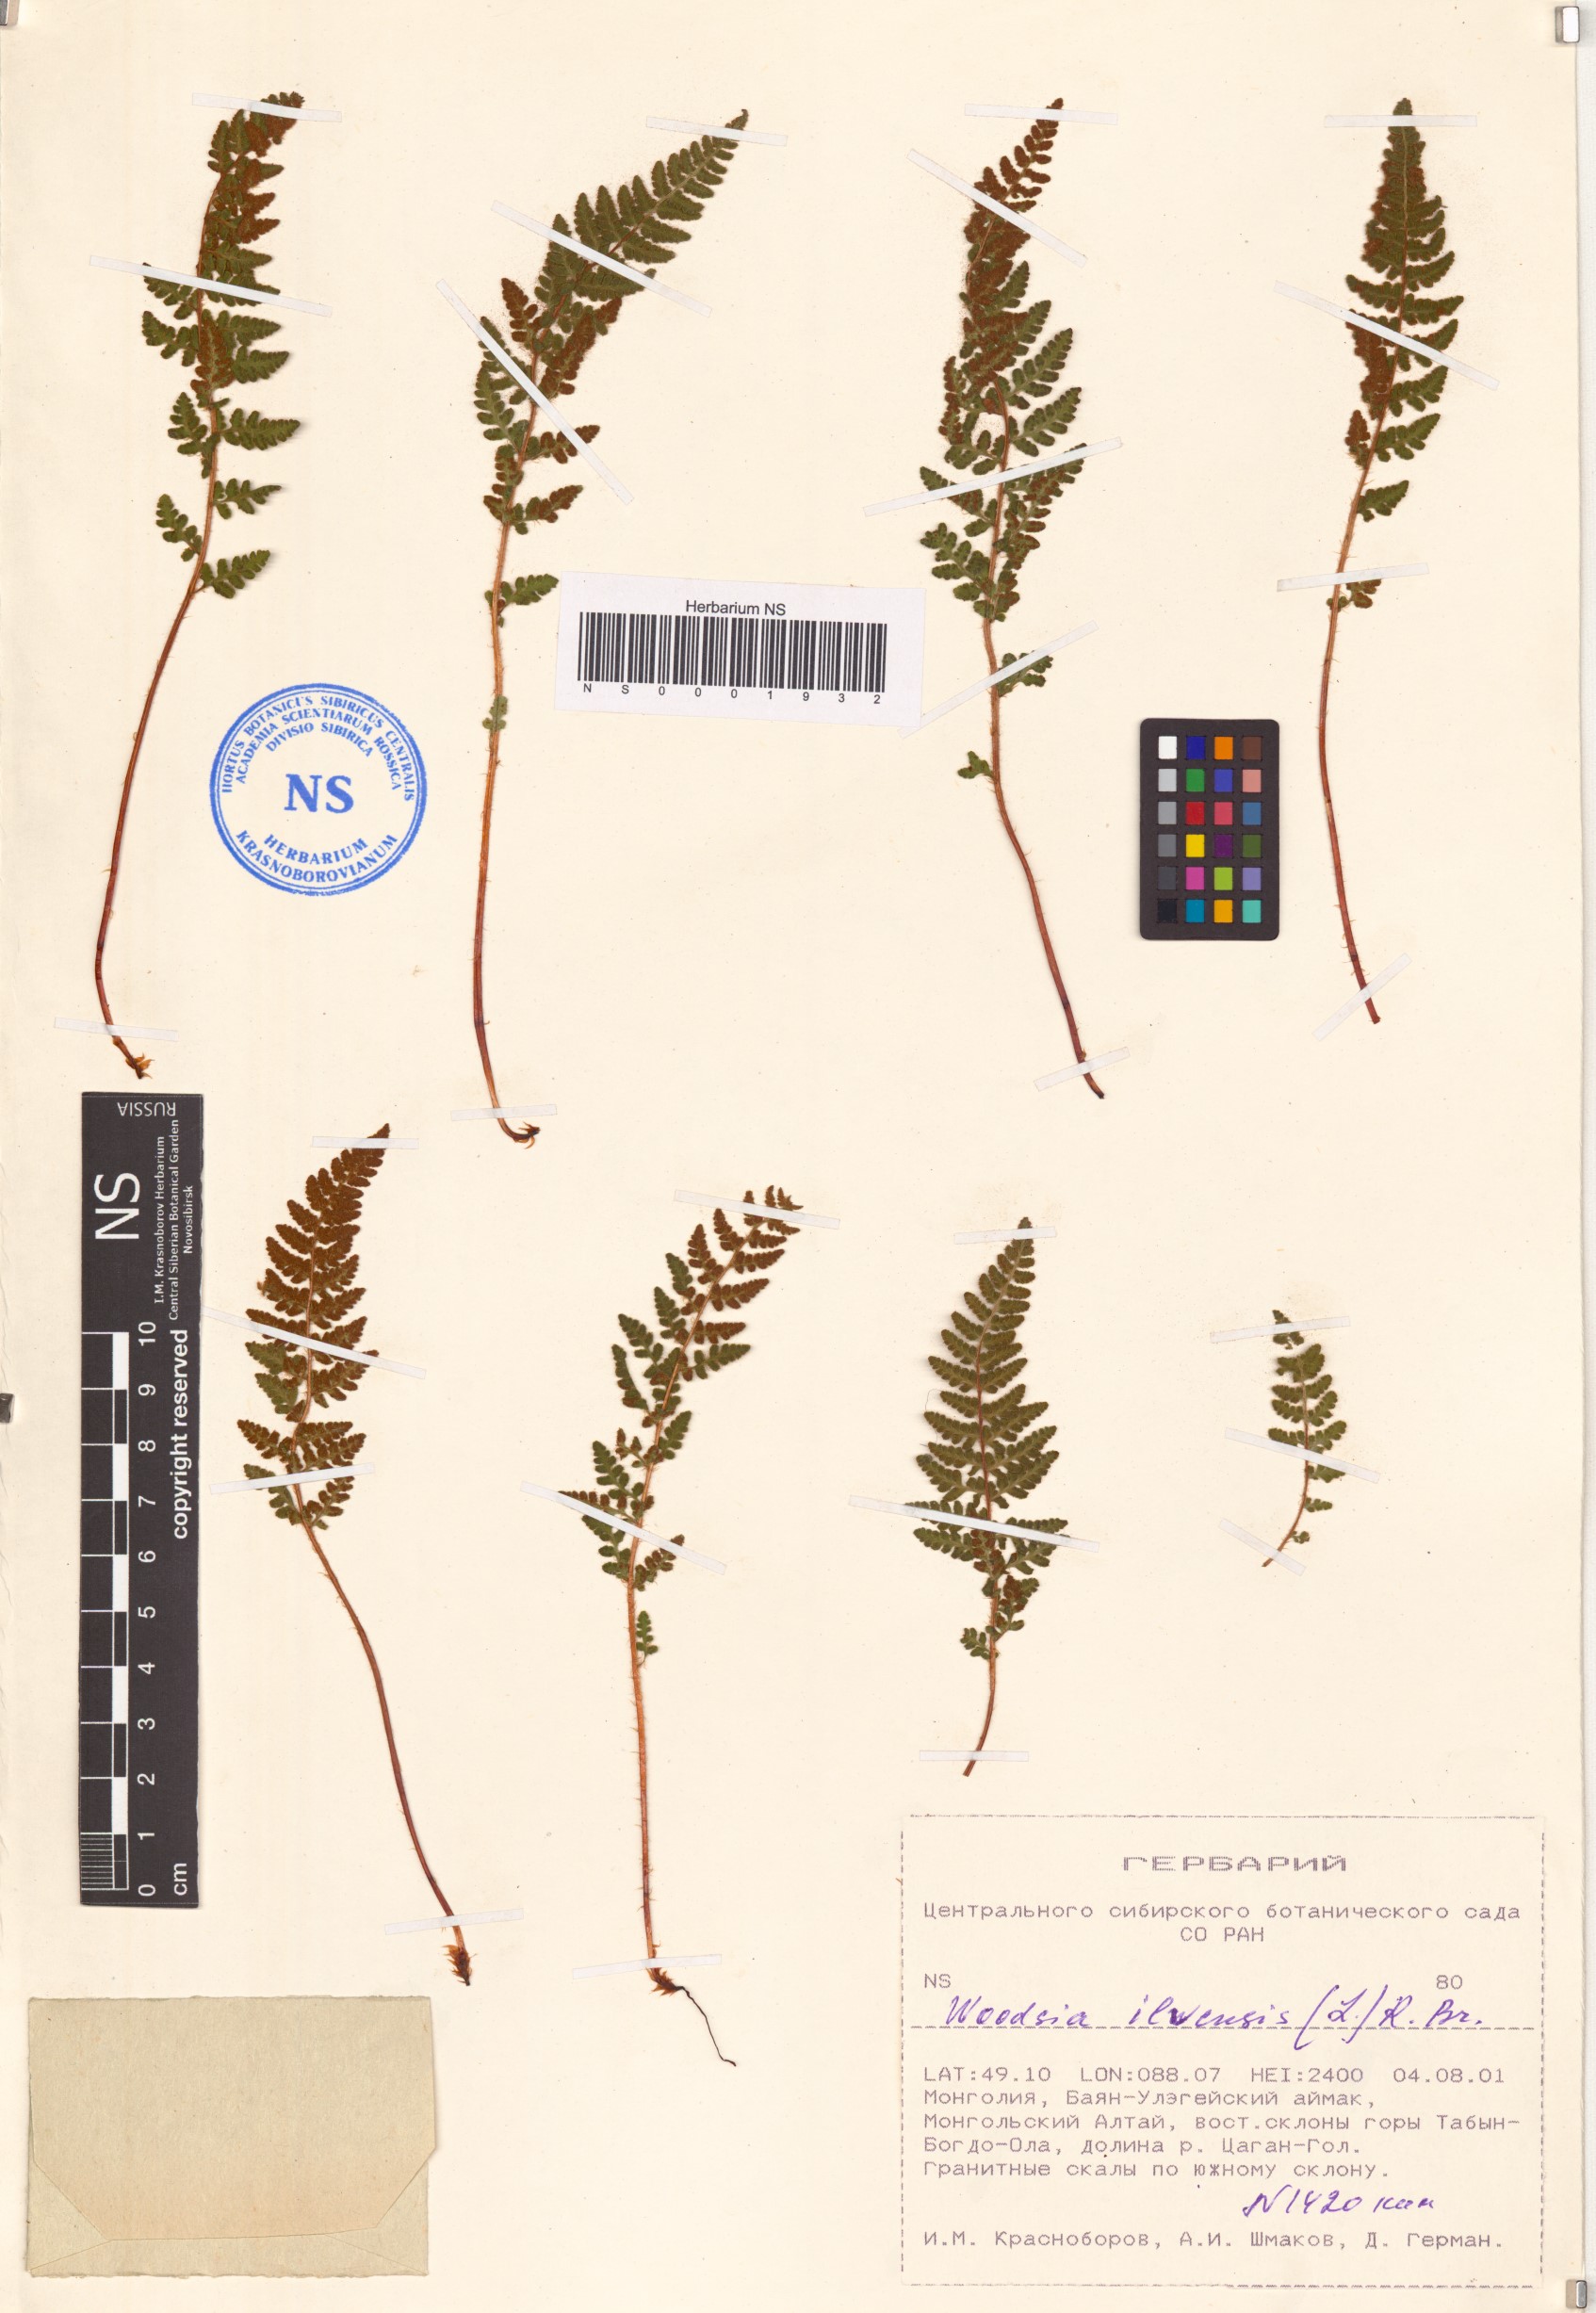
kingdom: Plantae
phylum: Tracheophyta
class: Polypodiopsida
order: Polypodiales
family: Woodsiaceae
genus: Woodsia
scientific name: Woodsia ilvensis
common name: Fragrant woodsia
